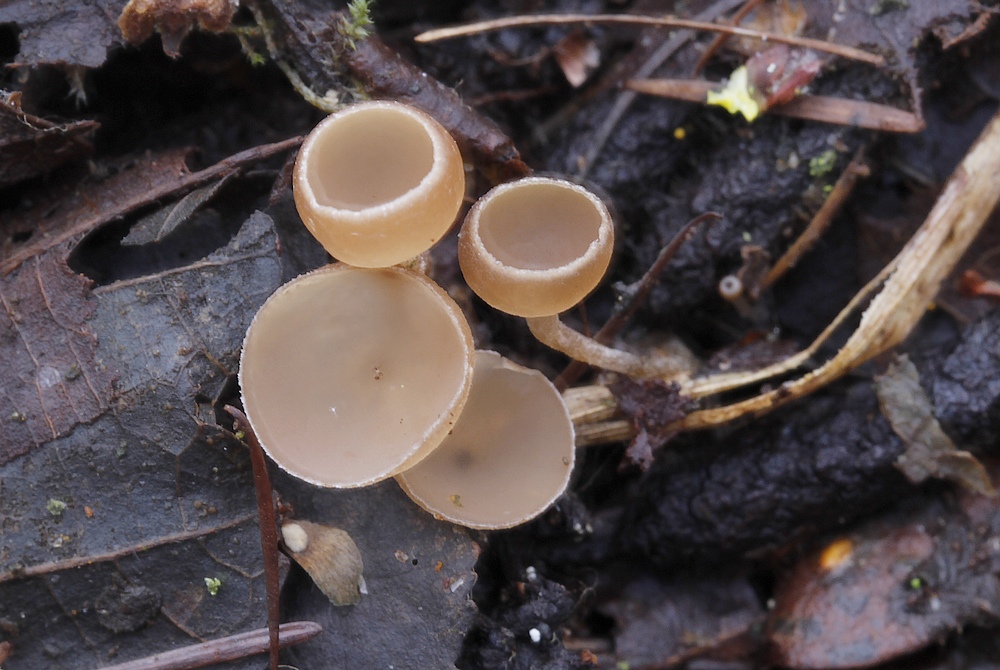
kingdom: Fungi
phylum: Ascomycota
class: Leotiomycetes
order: Helotiales
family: Sclerotiniaceae
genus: Ciboria
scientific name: Ciboria amentacea
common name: ellerakle-knoldskive
